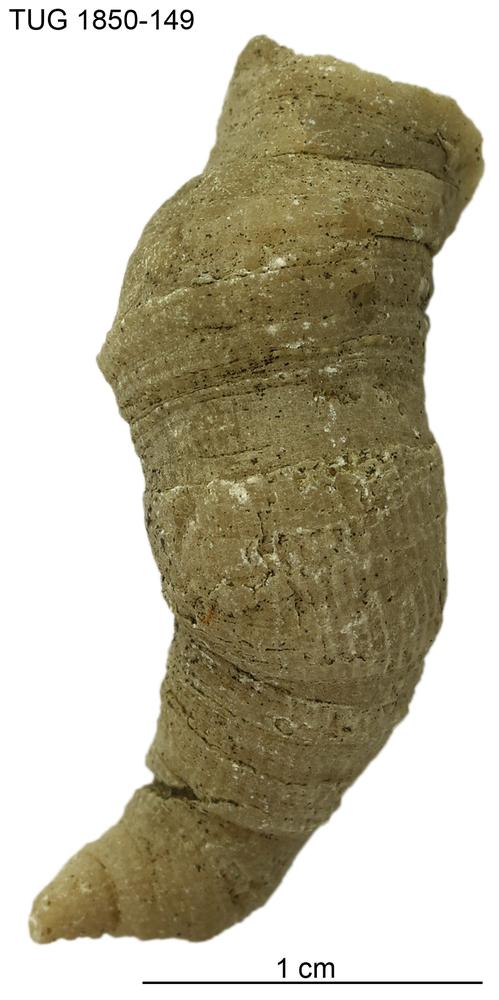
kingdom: Animalia
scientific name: Animalia
